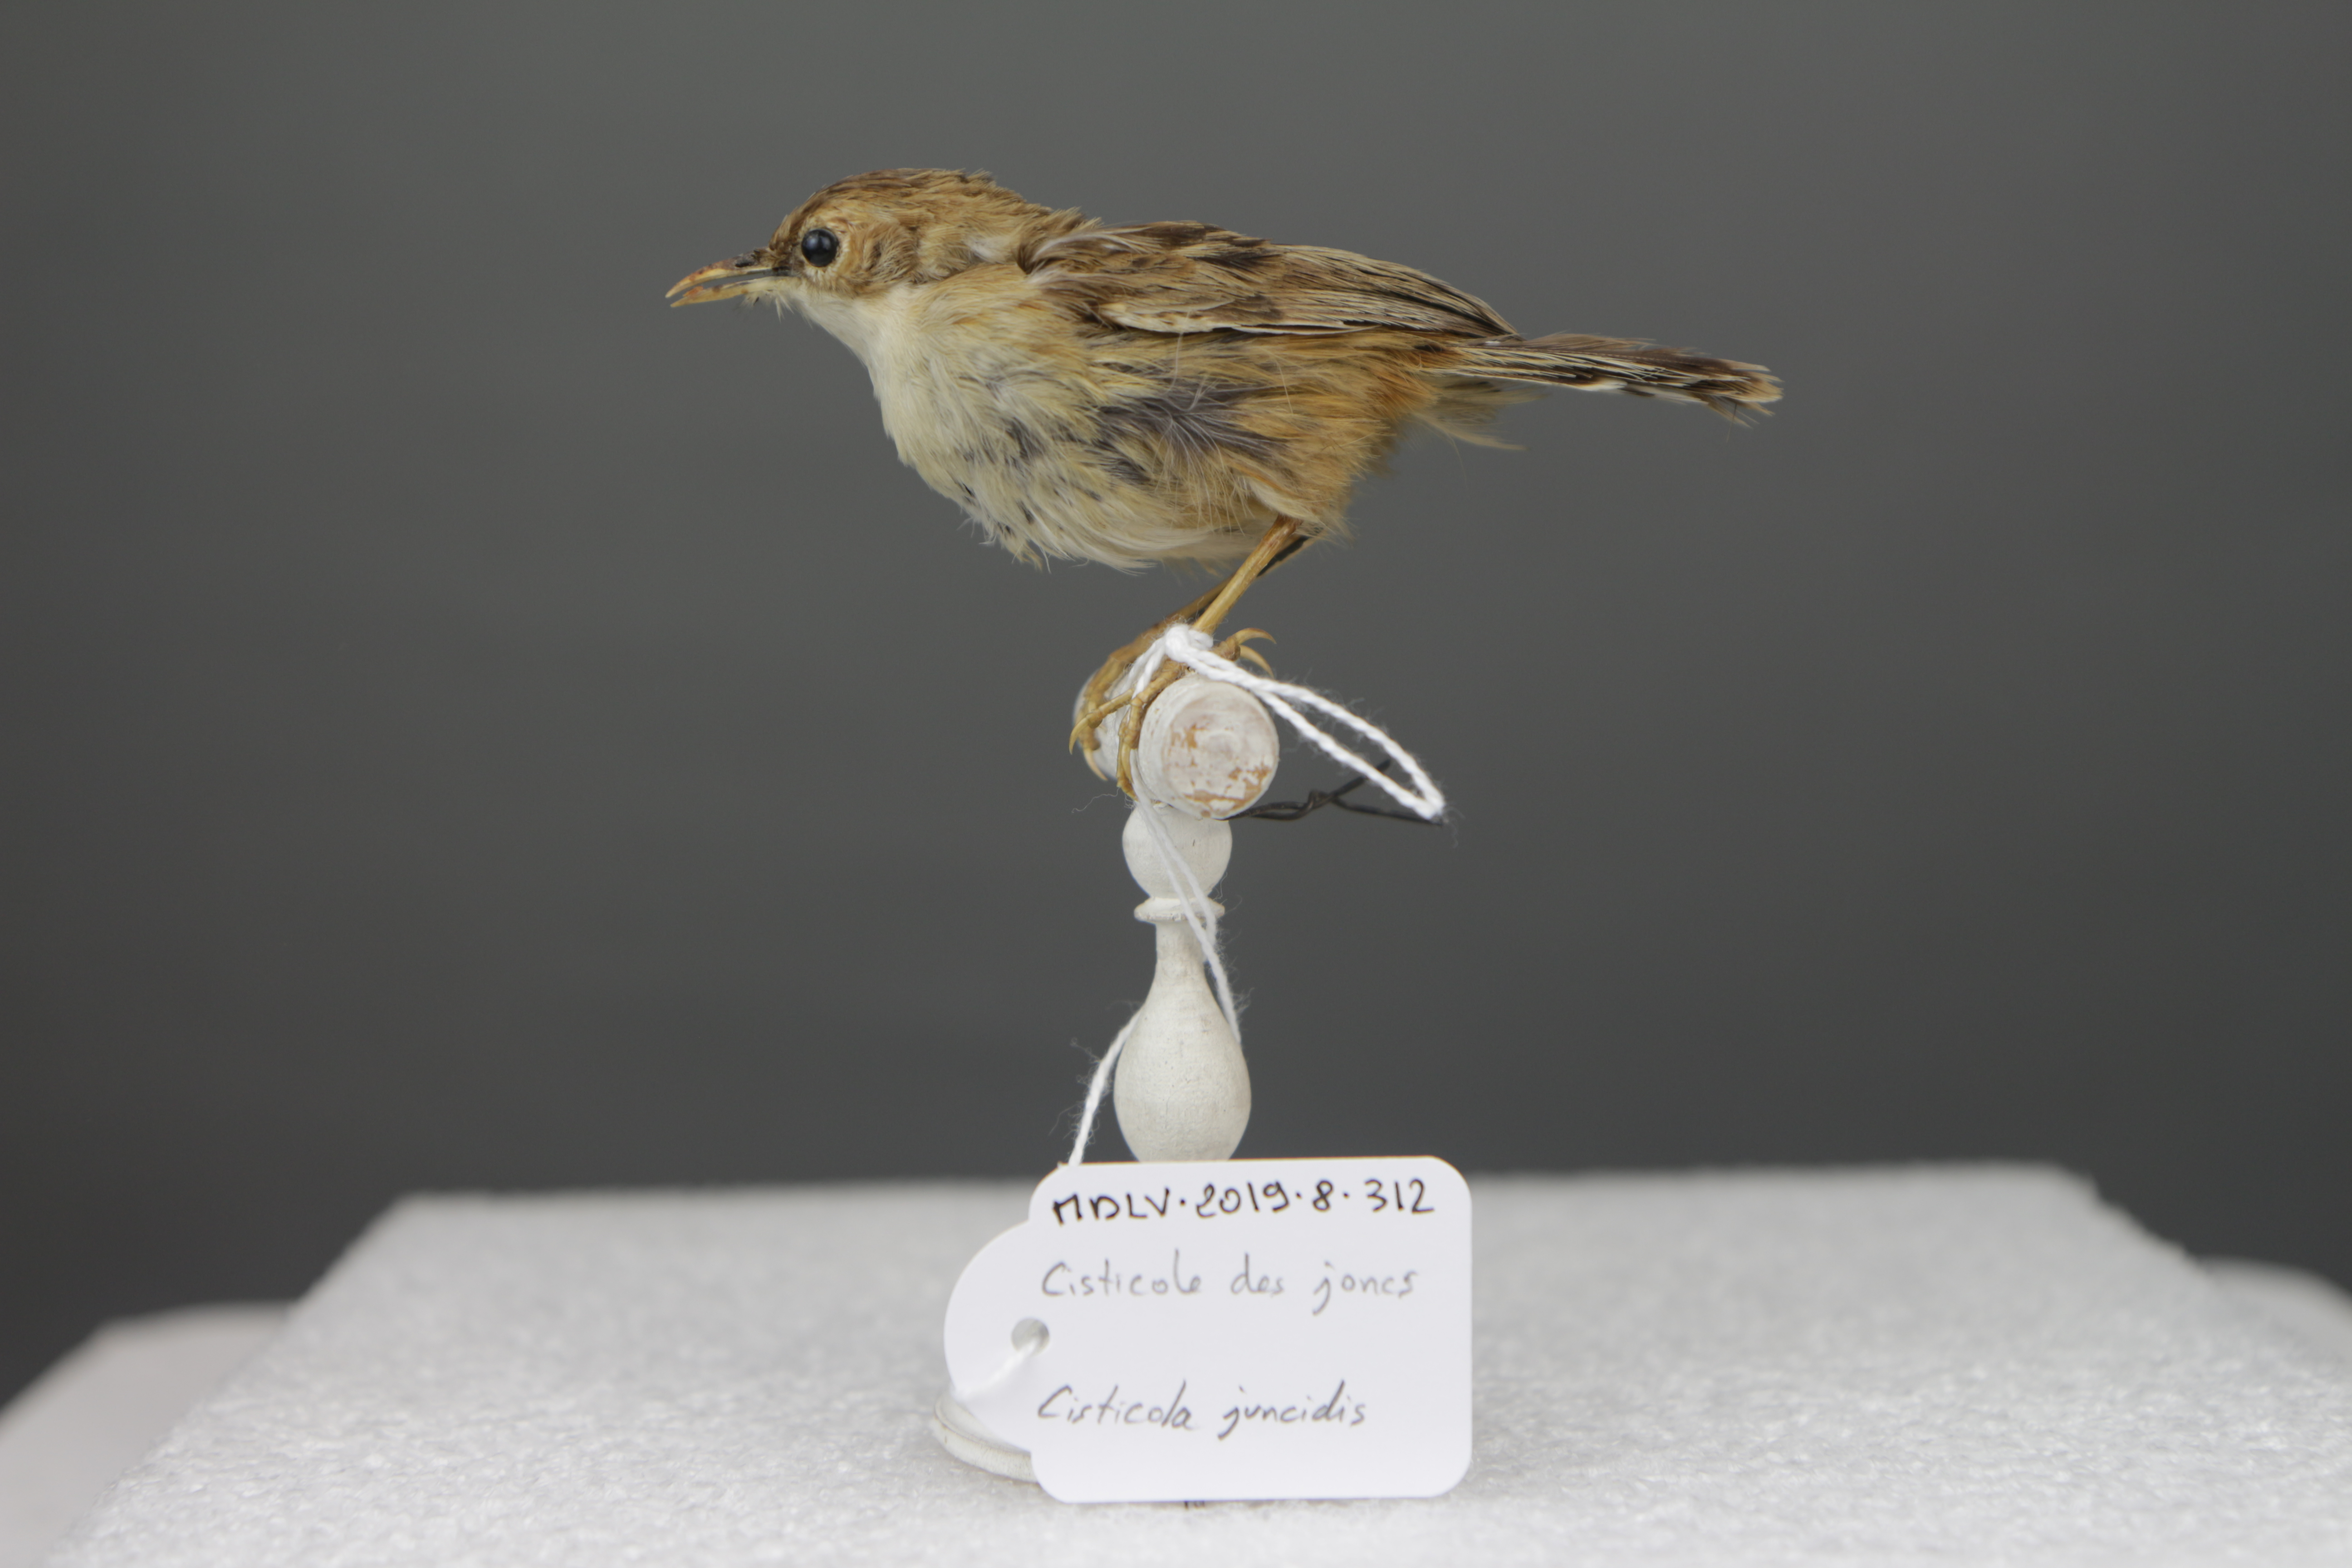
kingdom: Animalia
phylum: Chordata
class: Aves
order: Passeriformes
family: Cisticolidae
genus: Cisticola
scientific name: Cisticola juncidis
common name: Zitting cisticola
